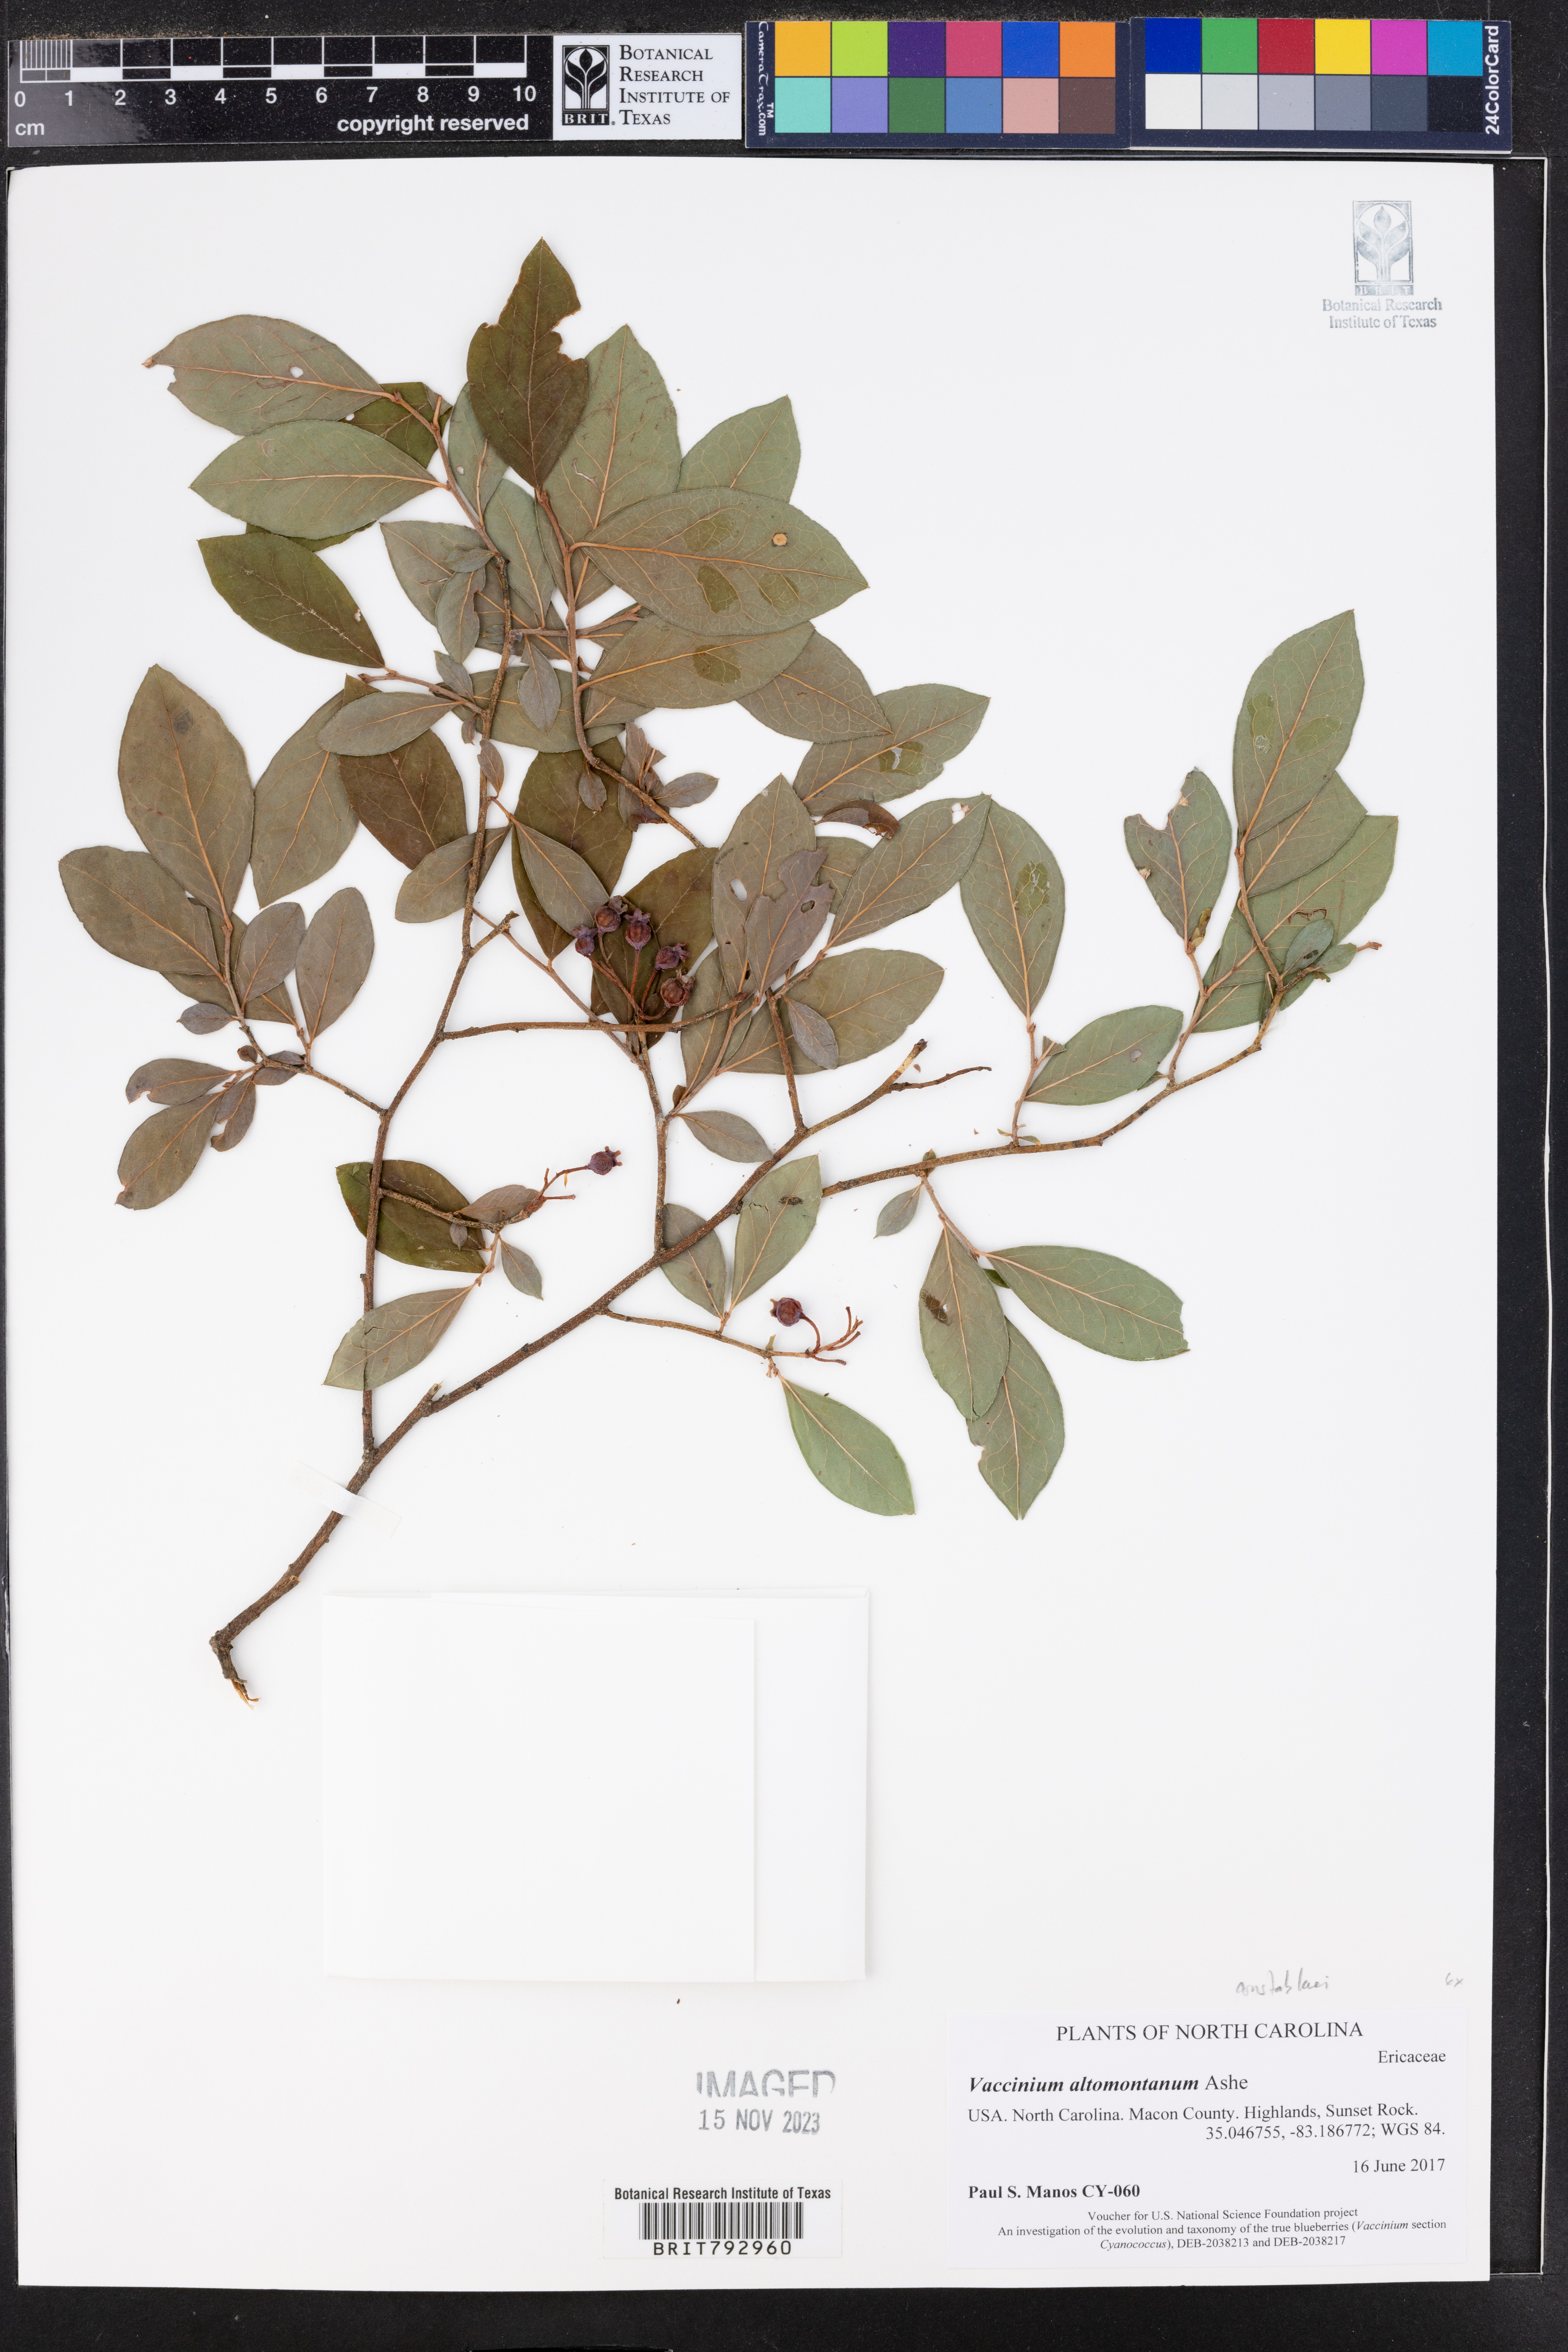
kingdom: Plantae
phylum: Tracheophyta
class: Magnoliopsida
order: Ericales
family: Ericaceae
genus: Vaccinium
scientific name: Vaccinium pallidum
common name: Blue ridge blueberry
